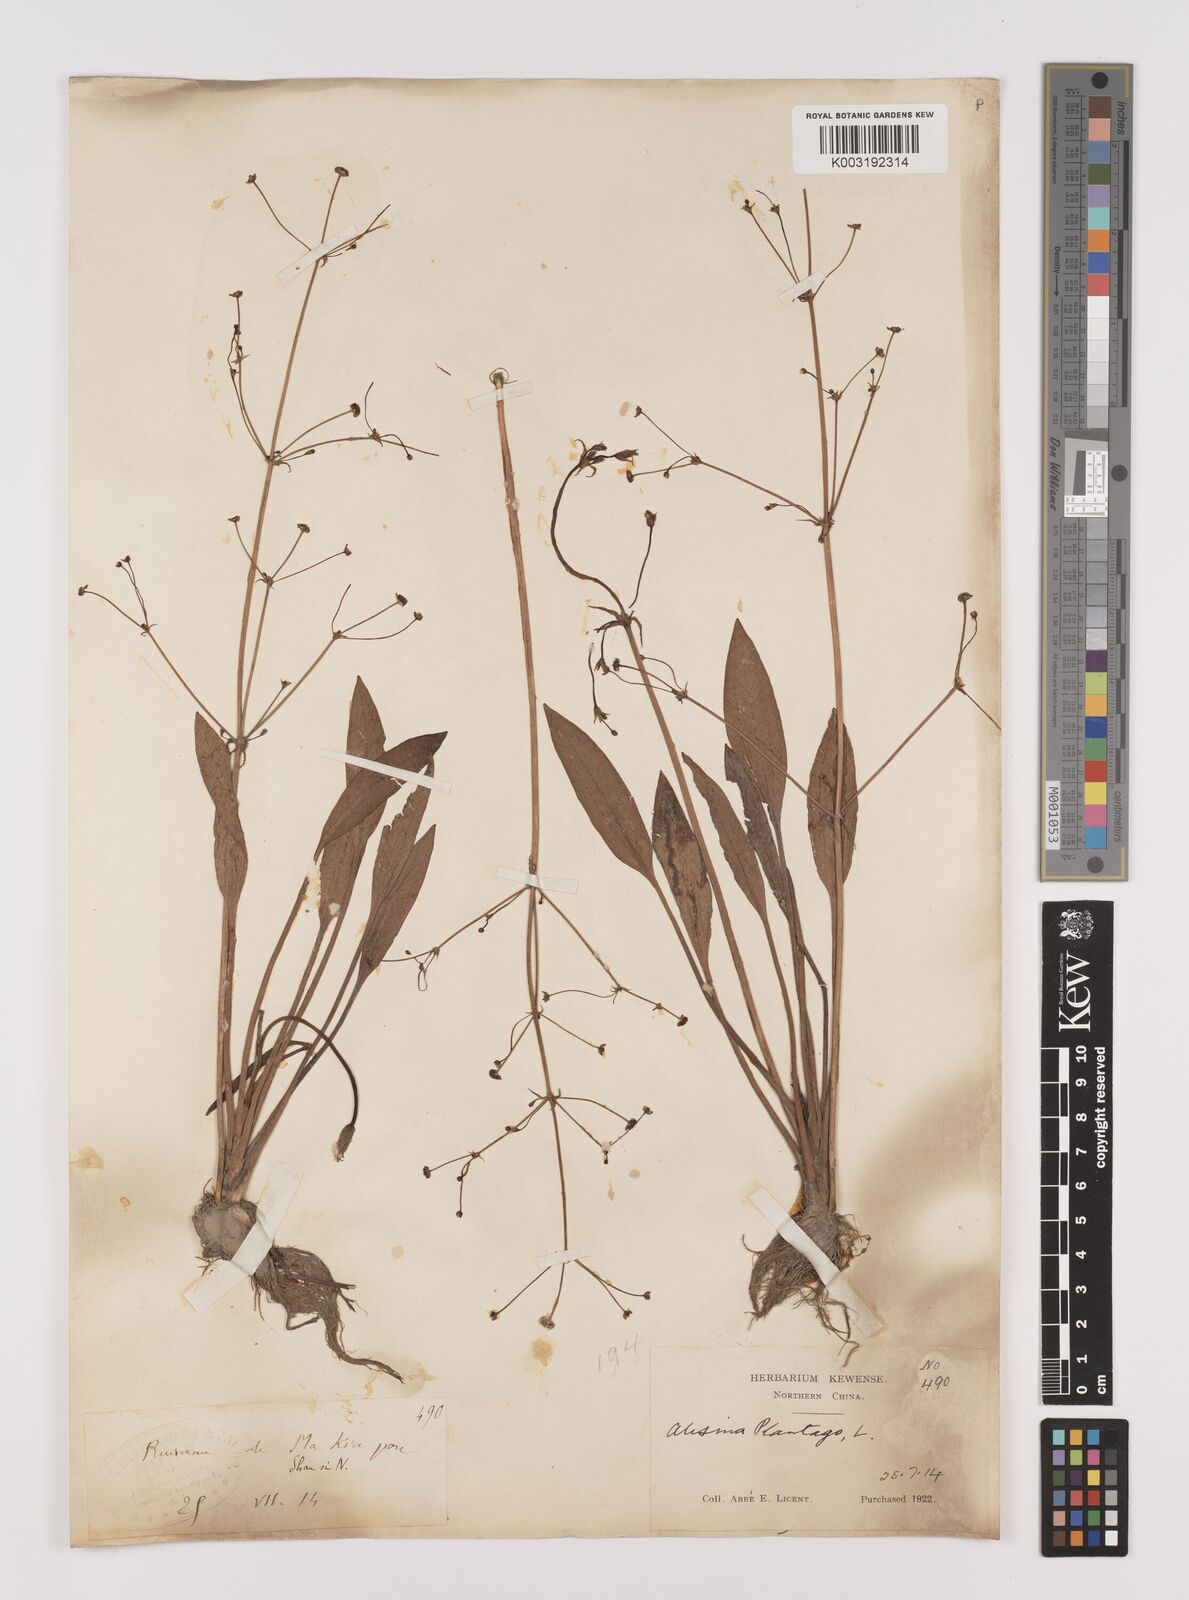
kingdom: Plantae
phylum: Tracheophyta
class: Liliopsida
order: Alismatales
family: Alismataceae
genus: Alisma
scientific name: Alisma canaliculatum
